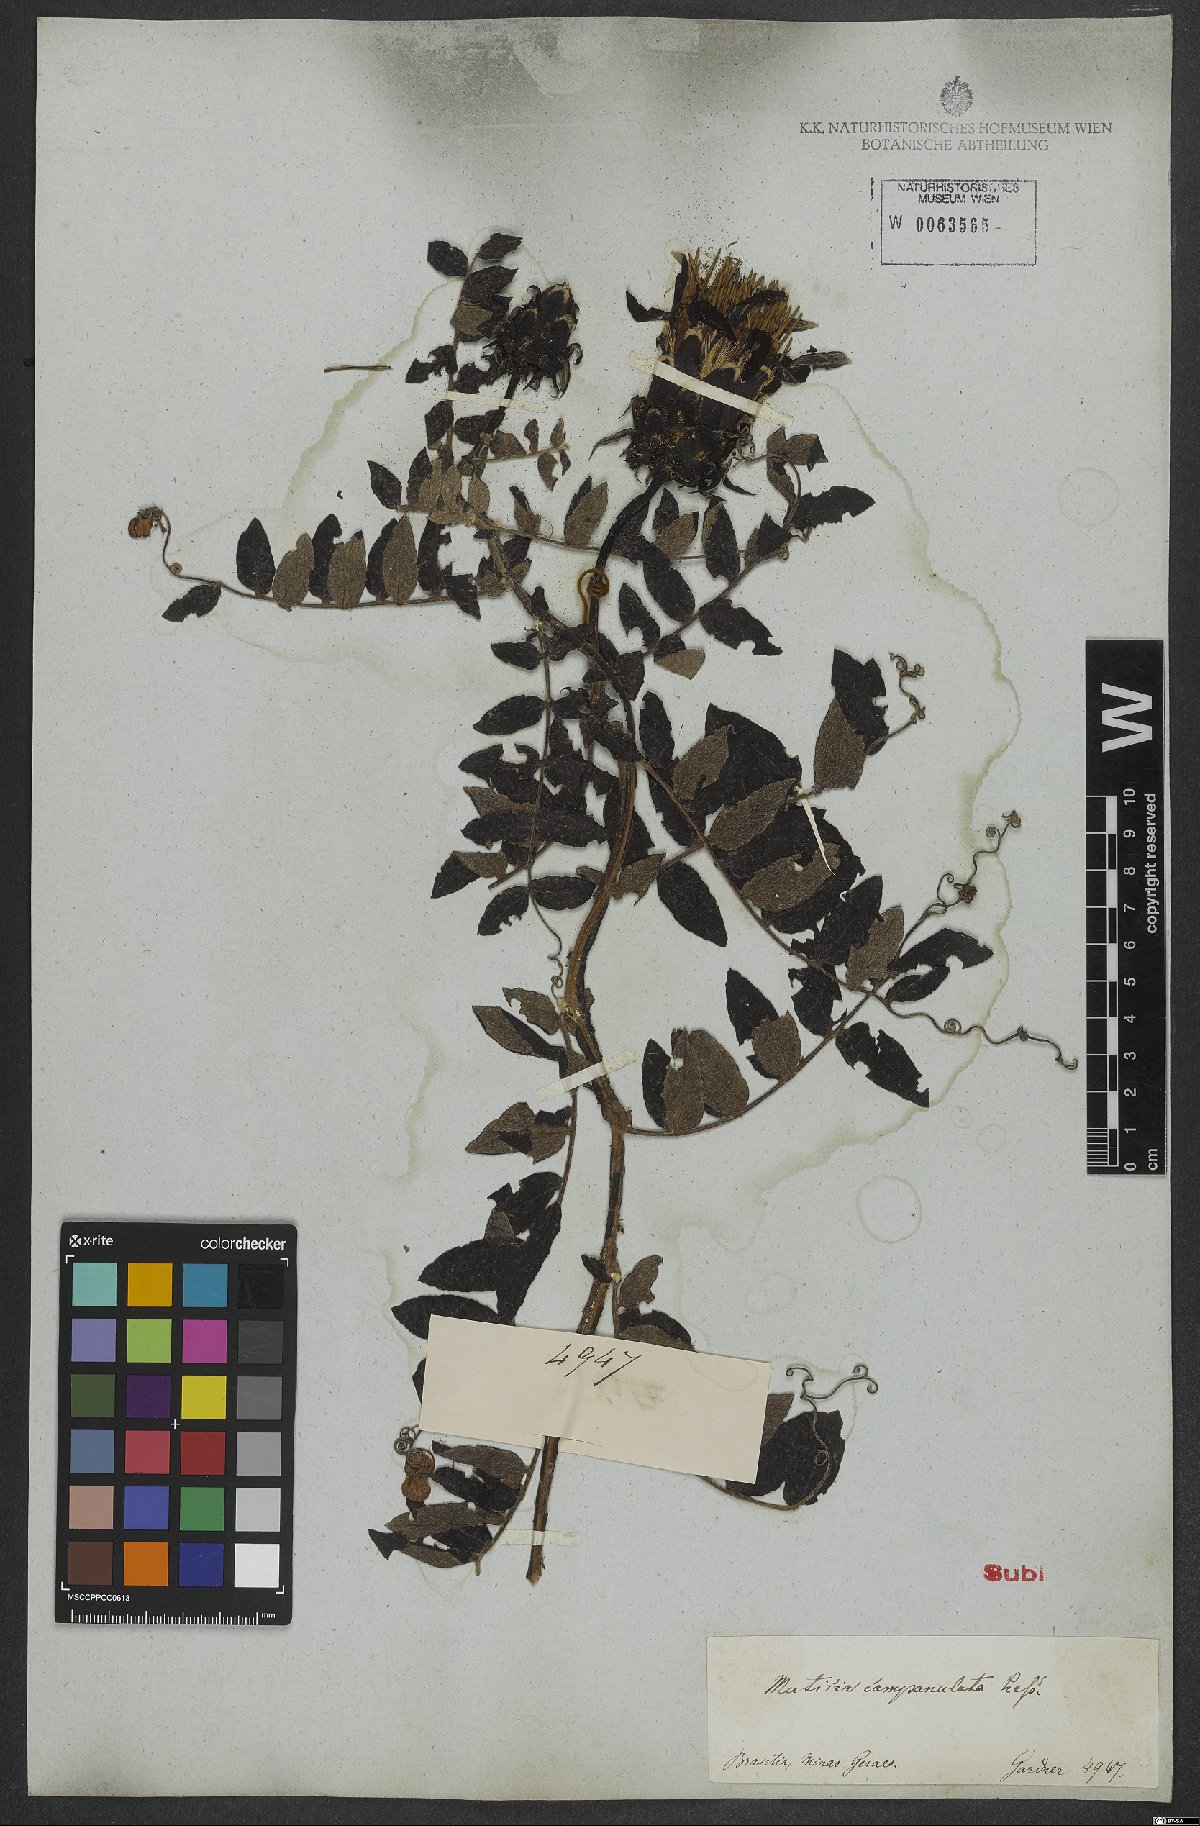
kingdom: Plantae
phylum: Tracheophyta
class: Magnoliopsida
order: Asterales
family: Asteraceae
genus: Mutisia
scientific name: Mutisia campanulata
